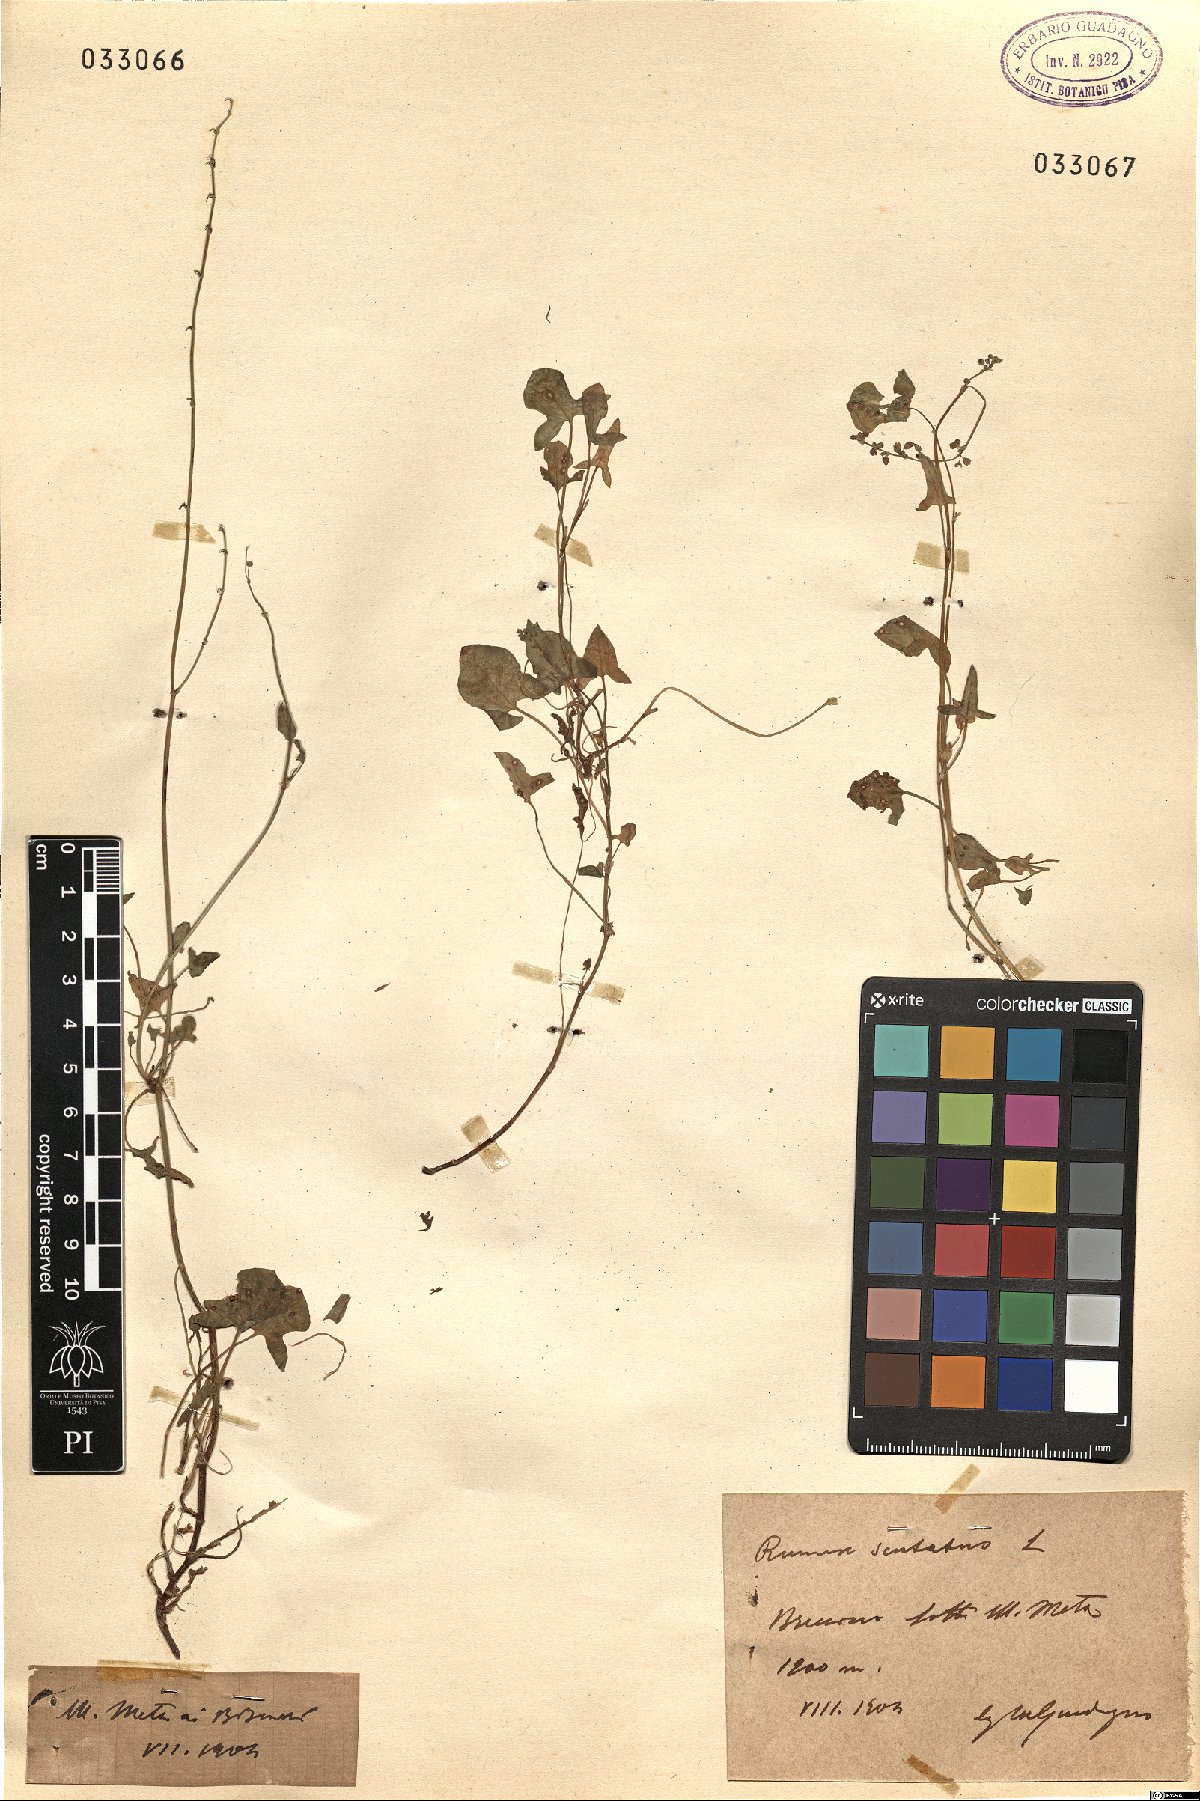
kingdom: Plantae
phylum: Tracheophyta
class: Magnoliopsida
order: Caryophyllales
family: Polygonaceae
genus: Rumex
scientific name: Rumex
